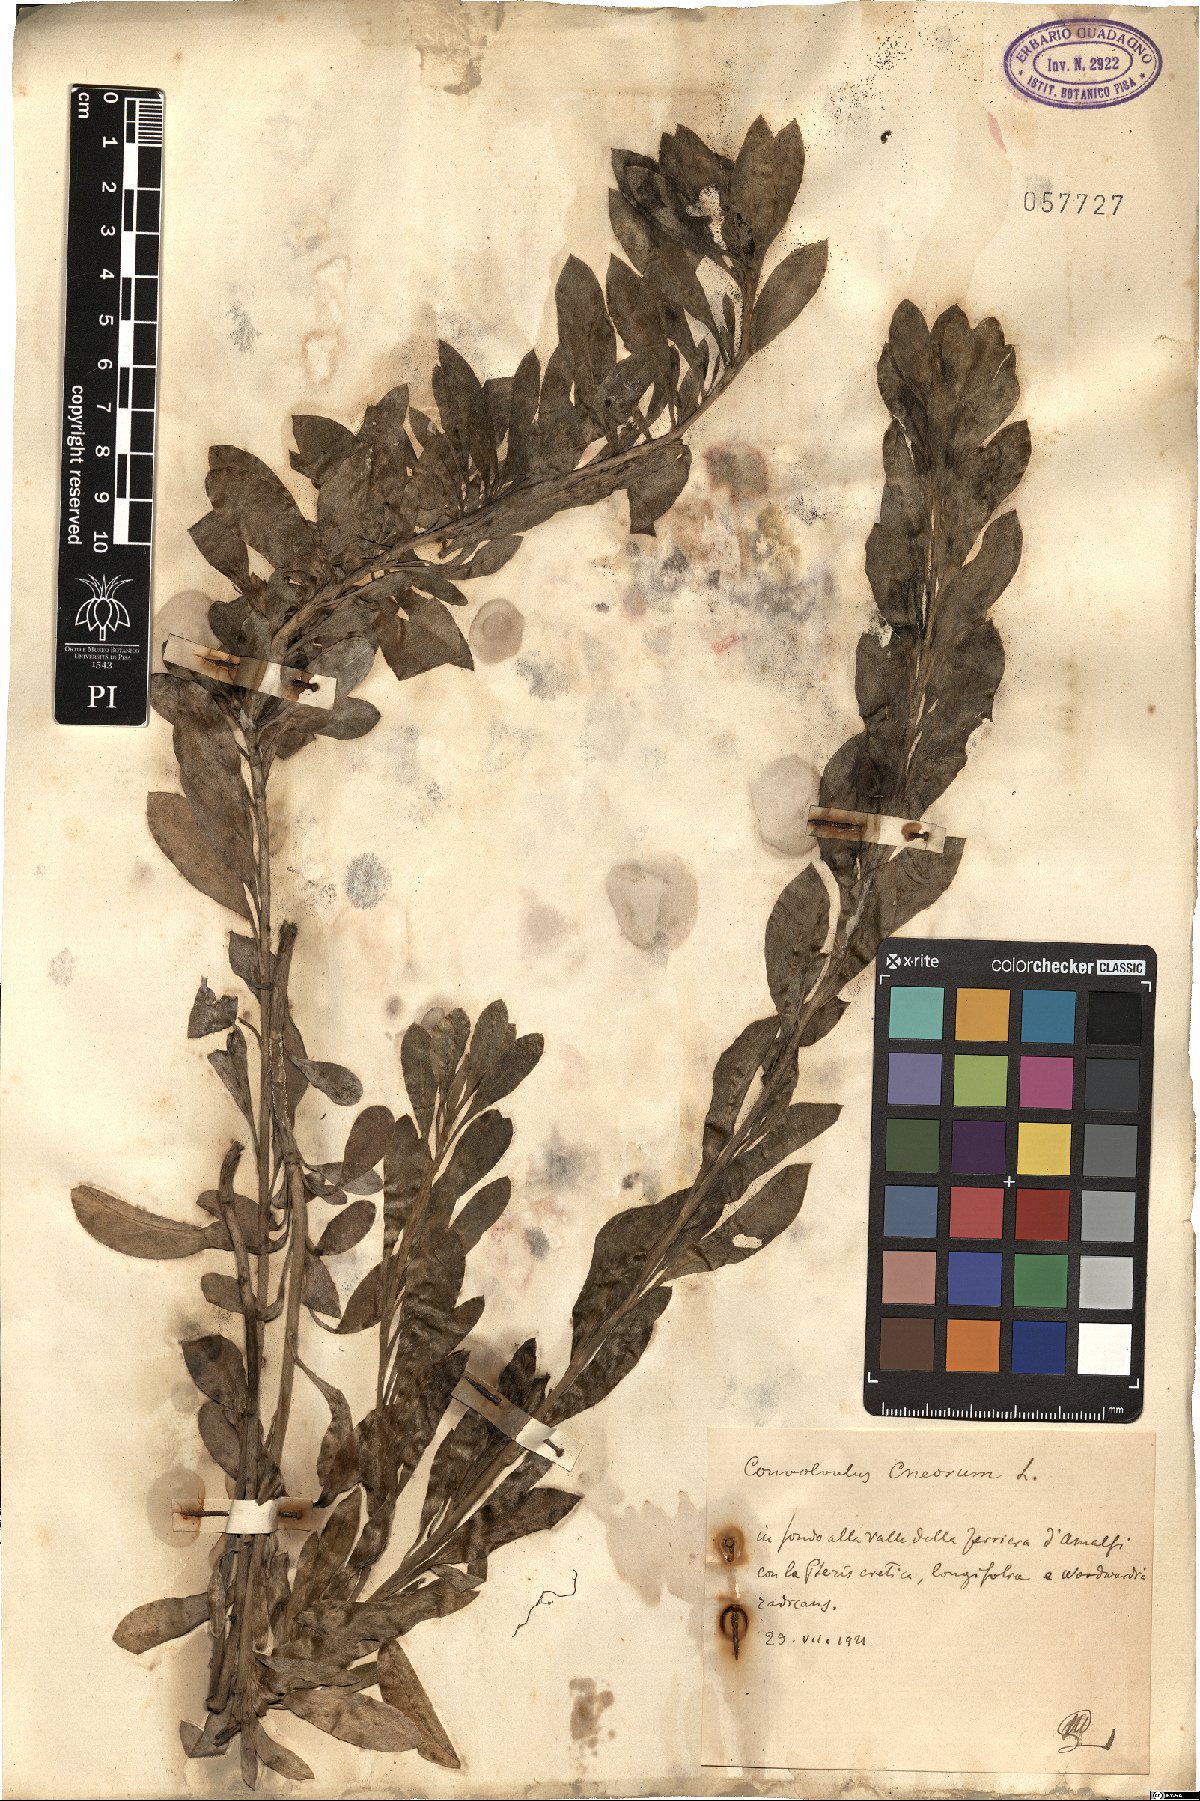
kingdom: Plantae
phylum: Tracheophyta
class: Magnoliopsida
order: Solanales
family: Convolvulaceae
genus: Convolvulus
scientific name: Convolvulus cneorum
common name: Silverbush
